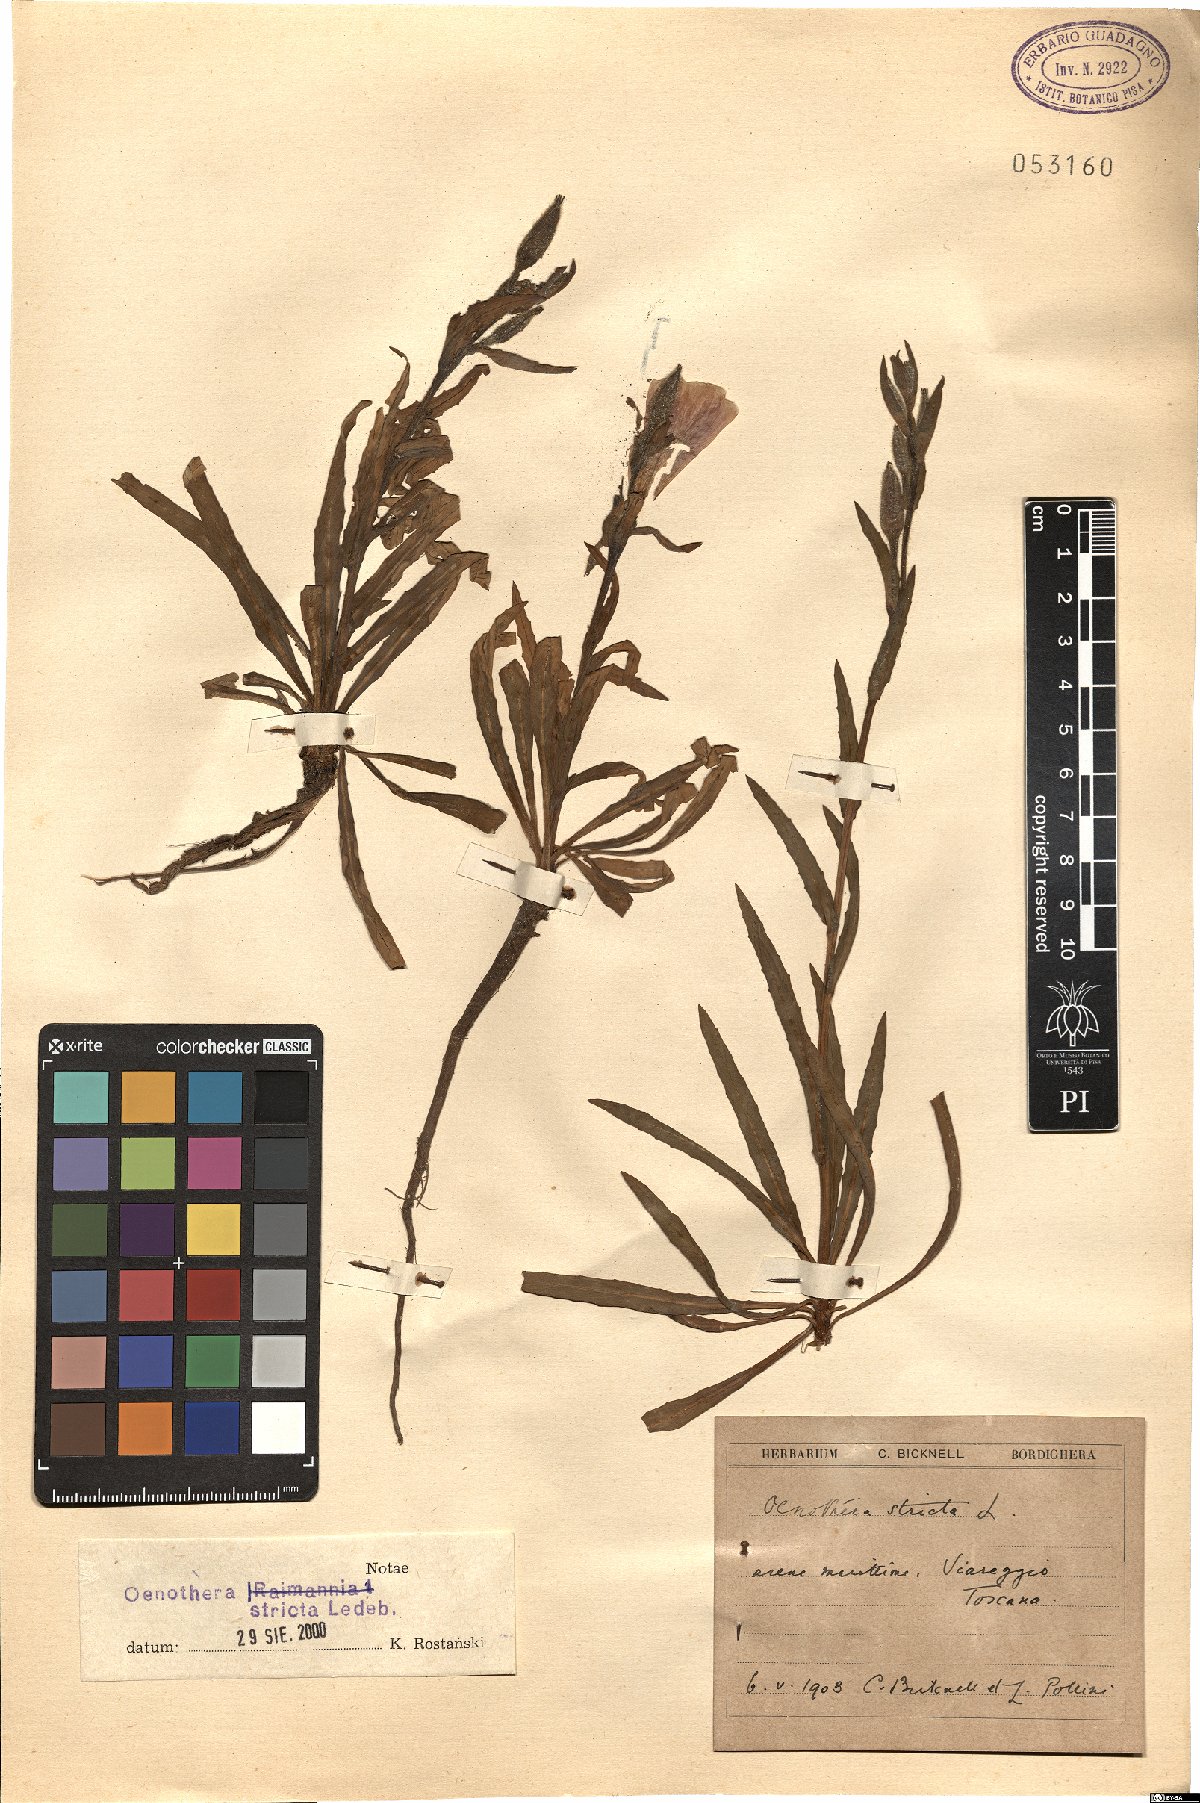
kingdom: Plantae
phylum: Tracheophyta
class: Magnoliopsida
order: Myrtales
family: Onagraceae
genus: Oenothera
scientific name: Oenothera stricta
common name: Fragrant evening-primrose
